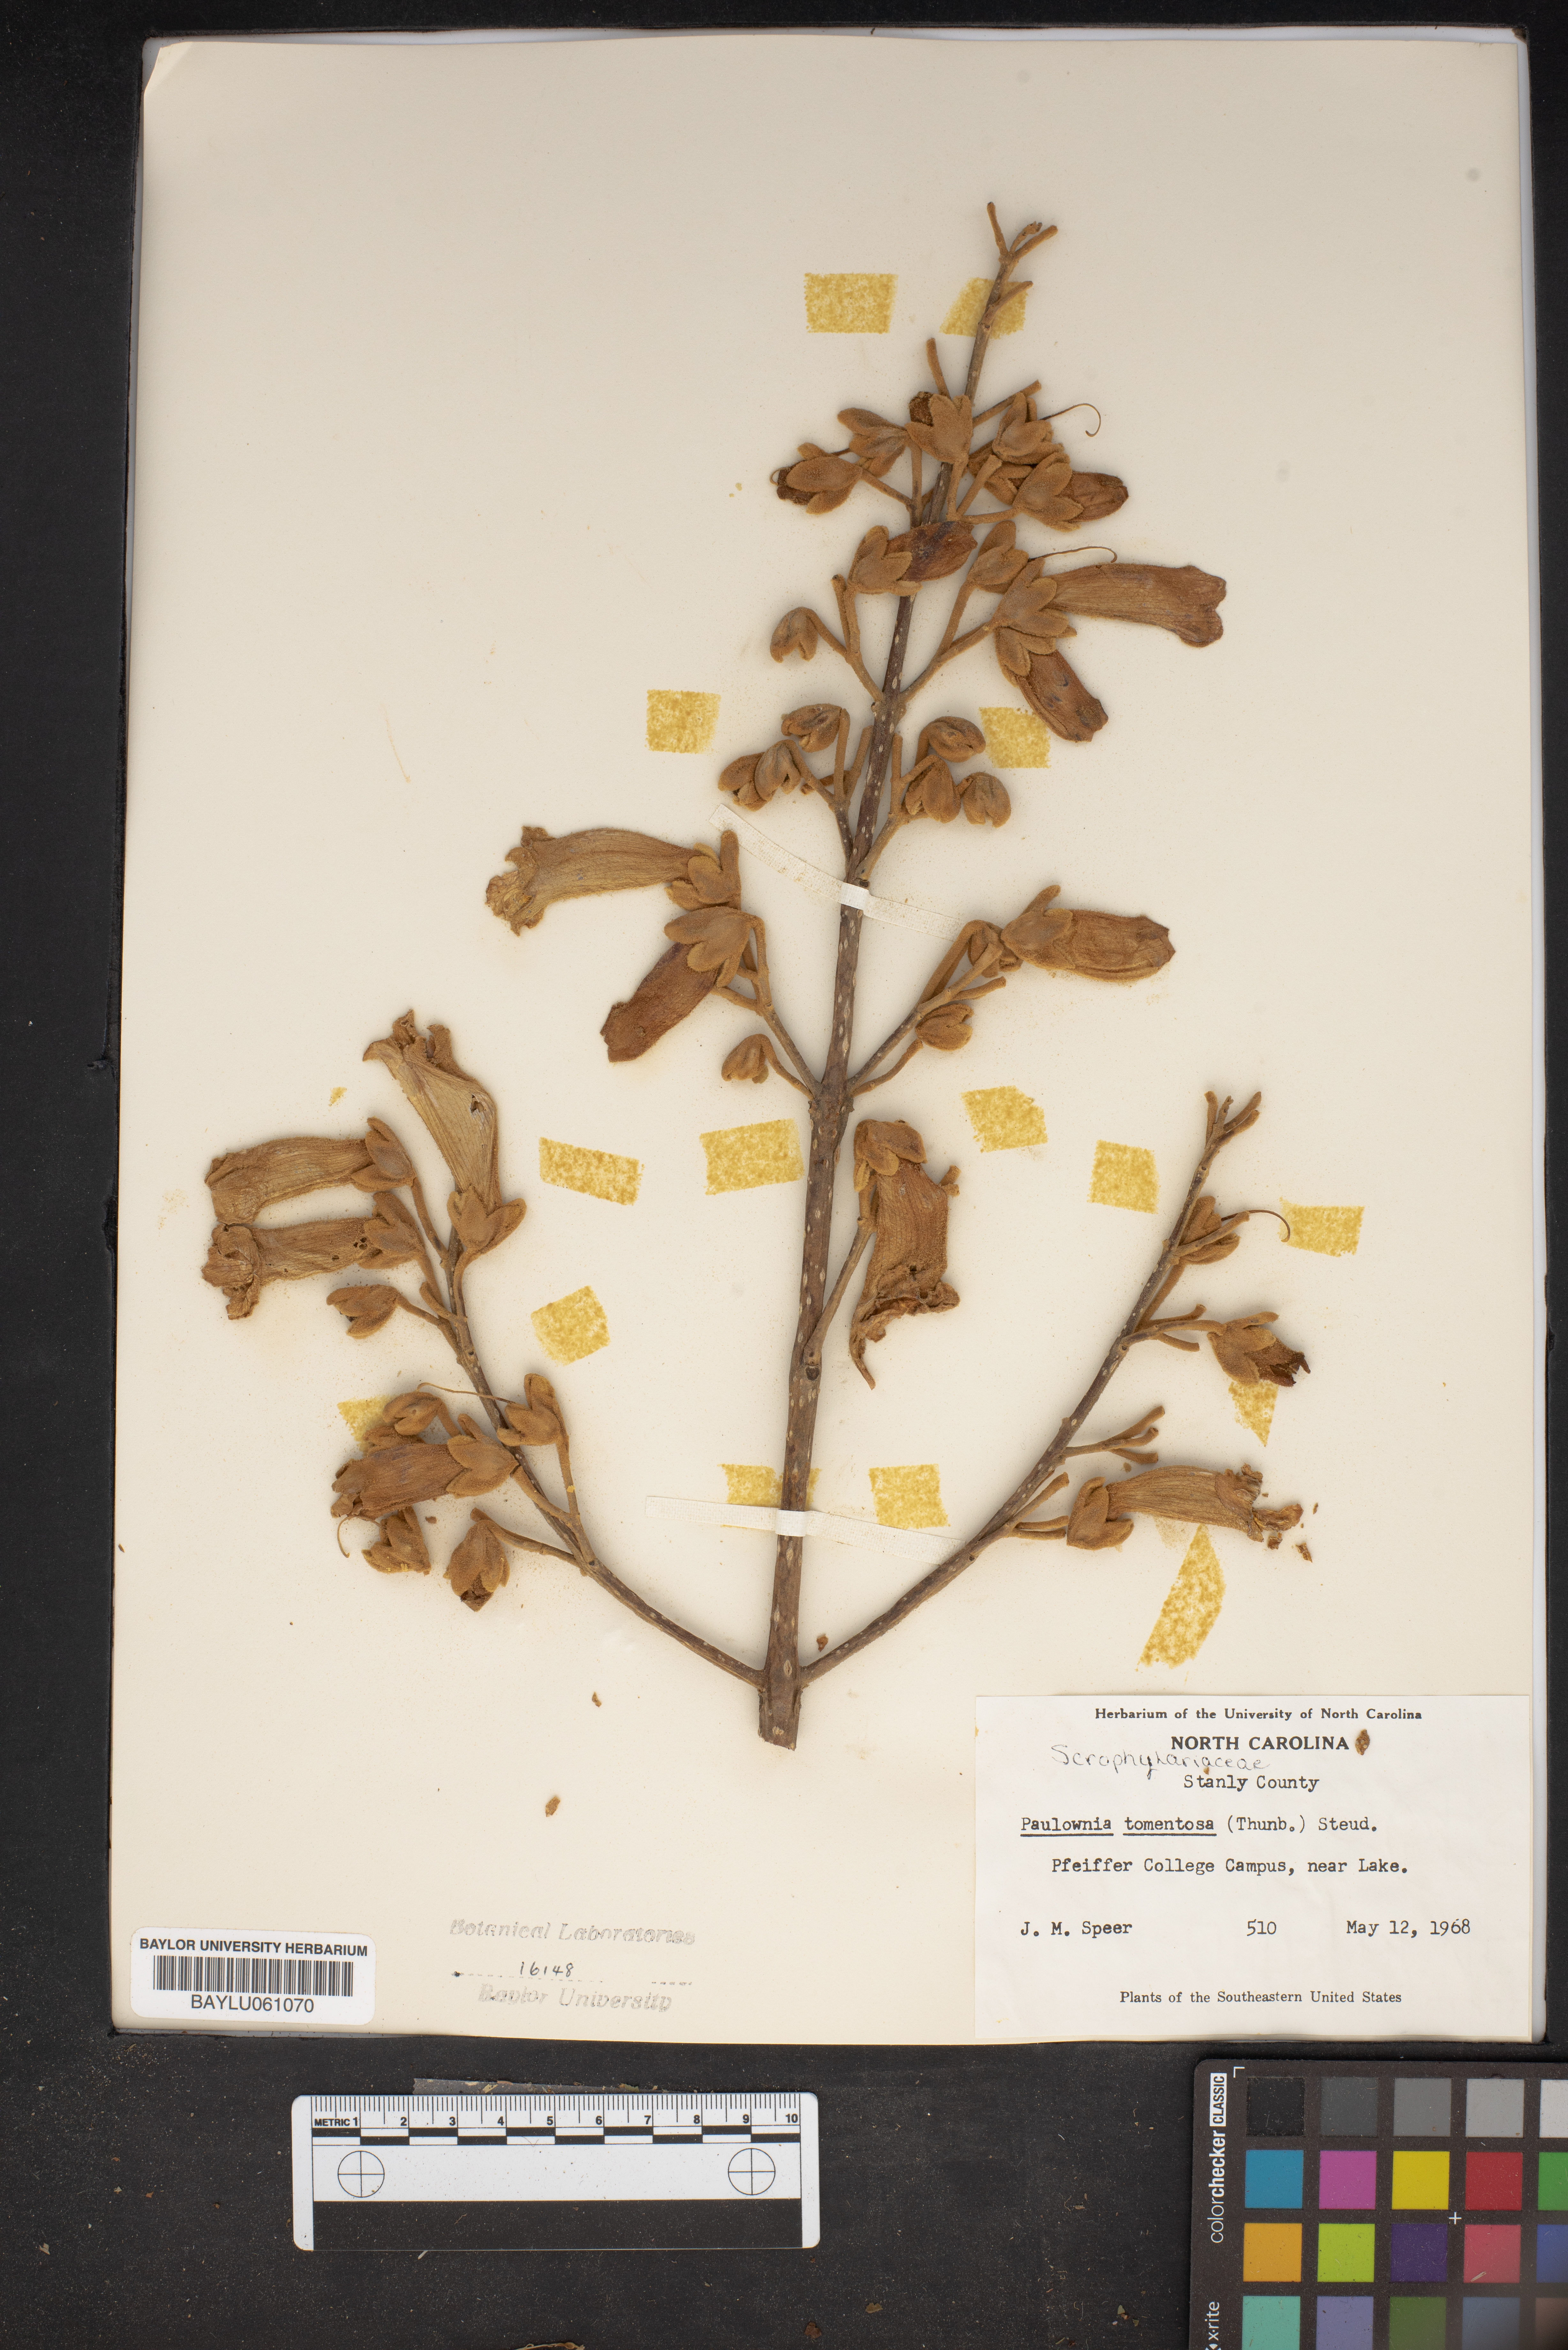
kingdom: Plantae
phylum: Tracheophyta
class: Magnoliopsida
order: Lamiales
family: Paulowniaceae
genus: Paulownia
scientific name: Paulownia tomentosa
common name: Foxglove-tree
